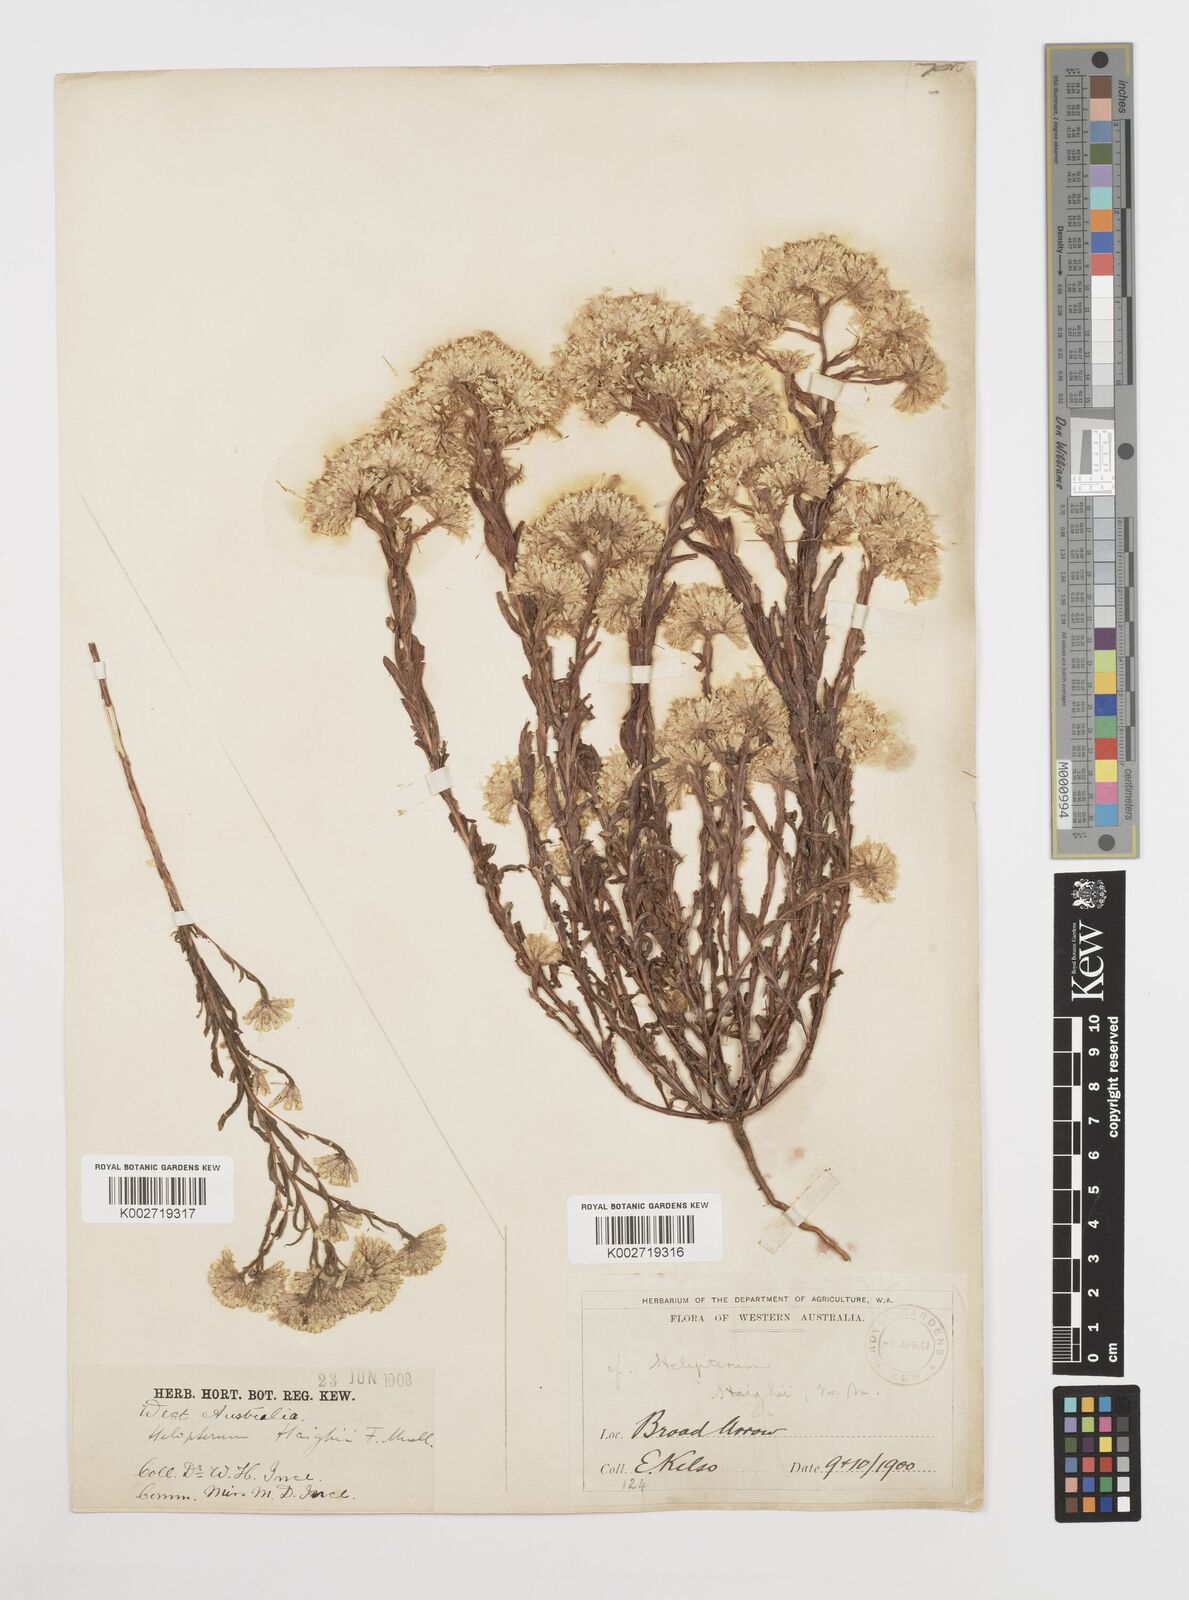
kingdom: Plantae
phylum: Tracheophyta
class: Magnoliopsida
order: Asterales
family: Asteraceae
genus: Rhodanthe
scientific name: Rhodanthe haigii
